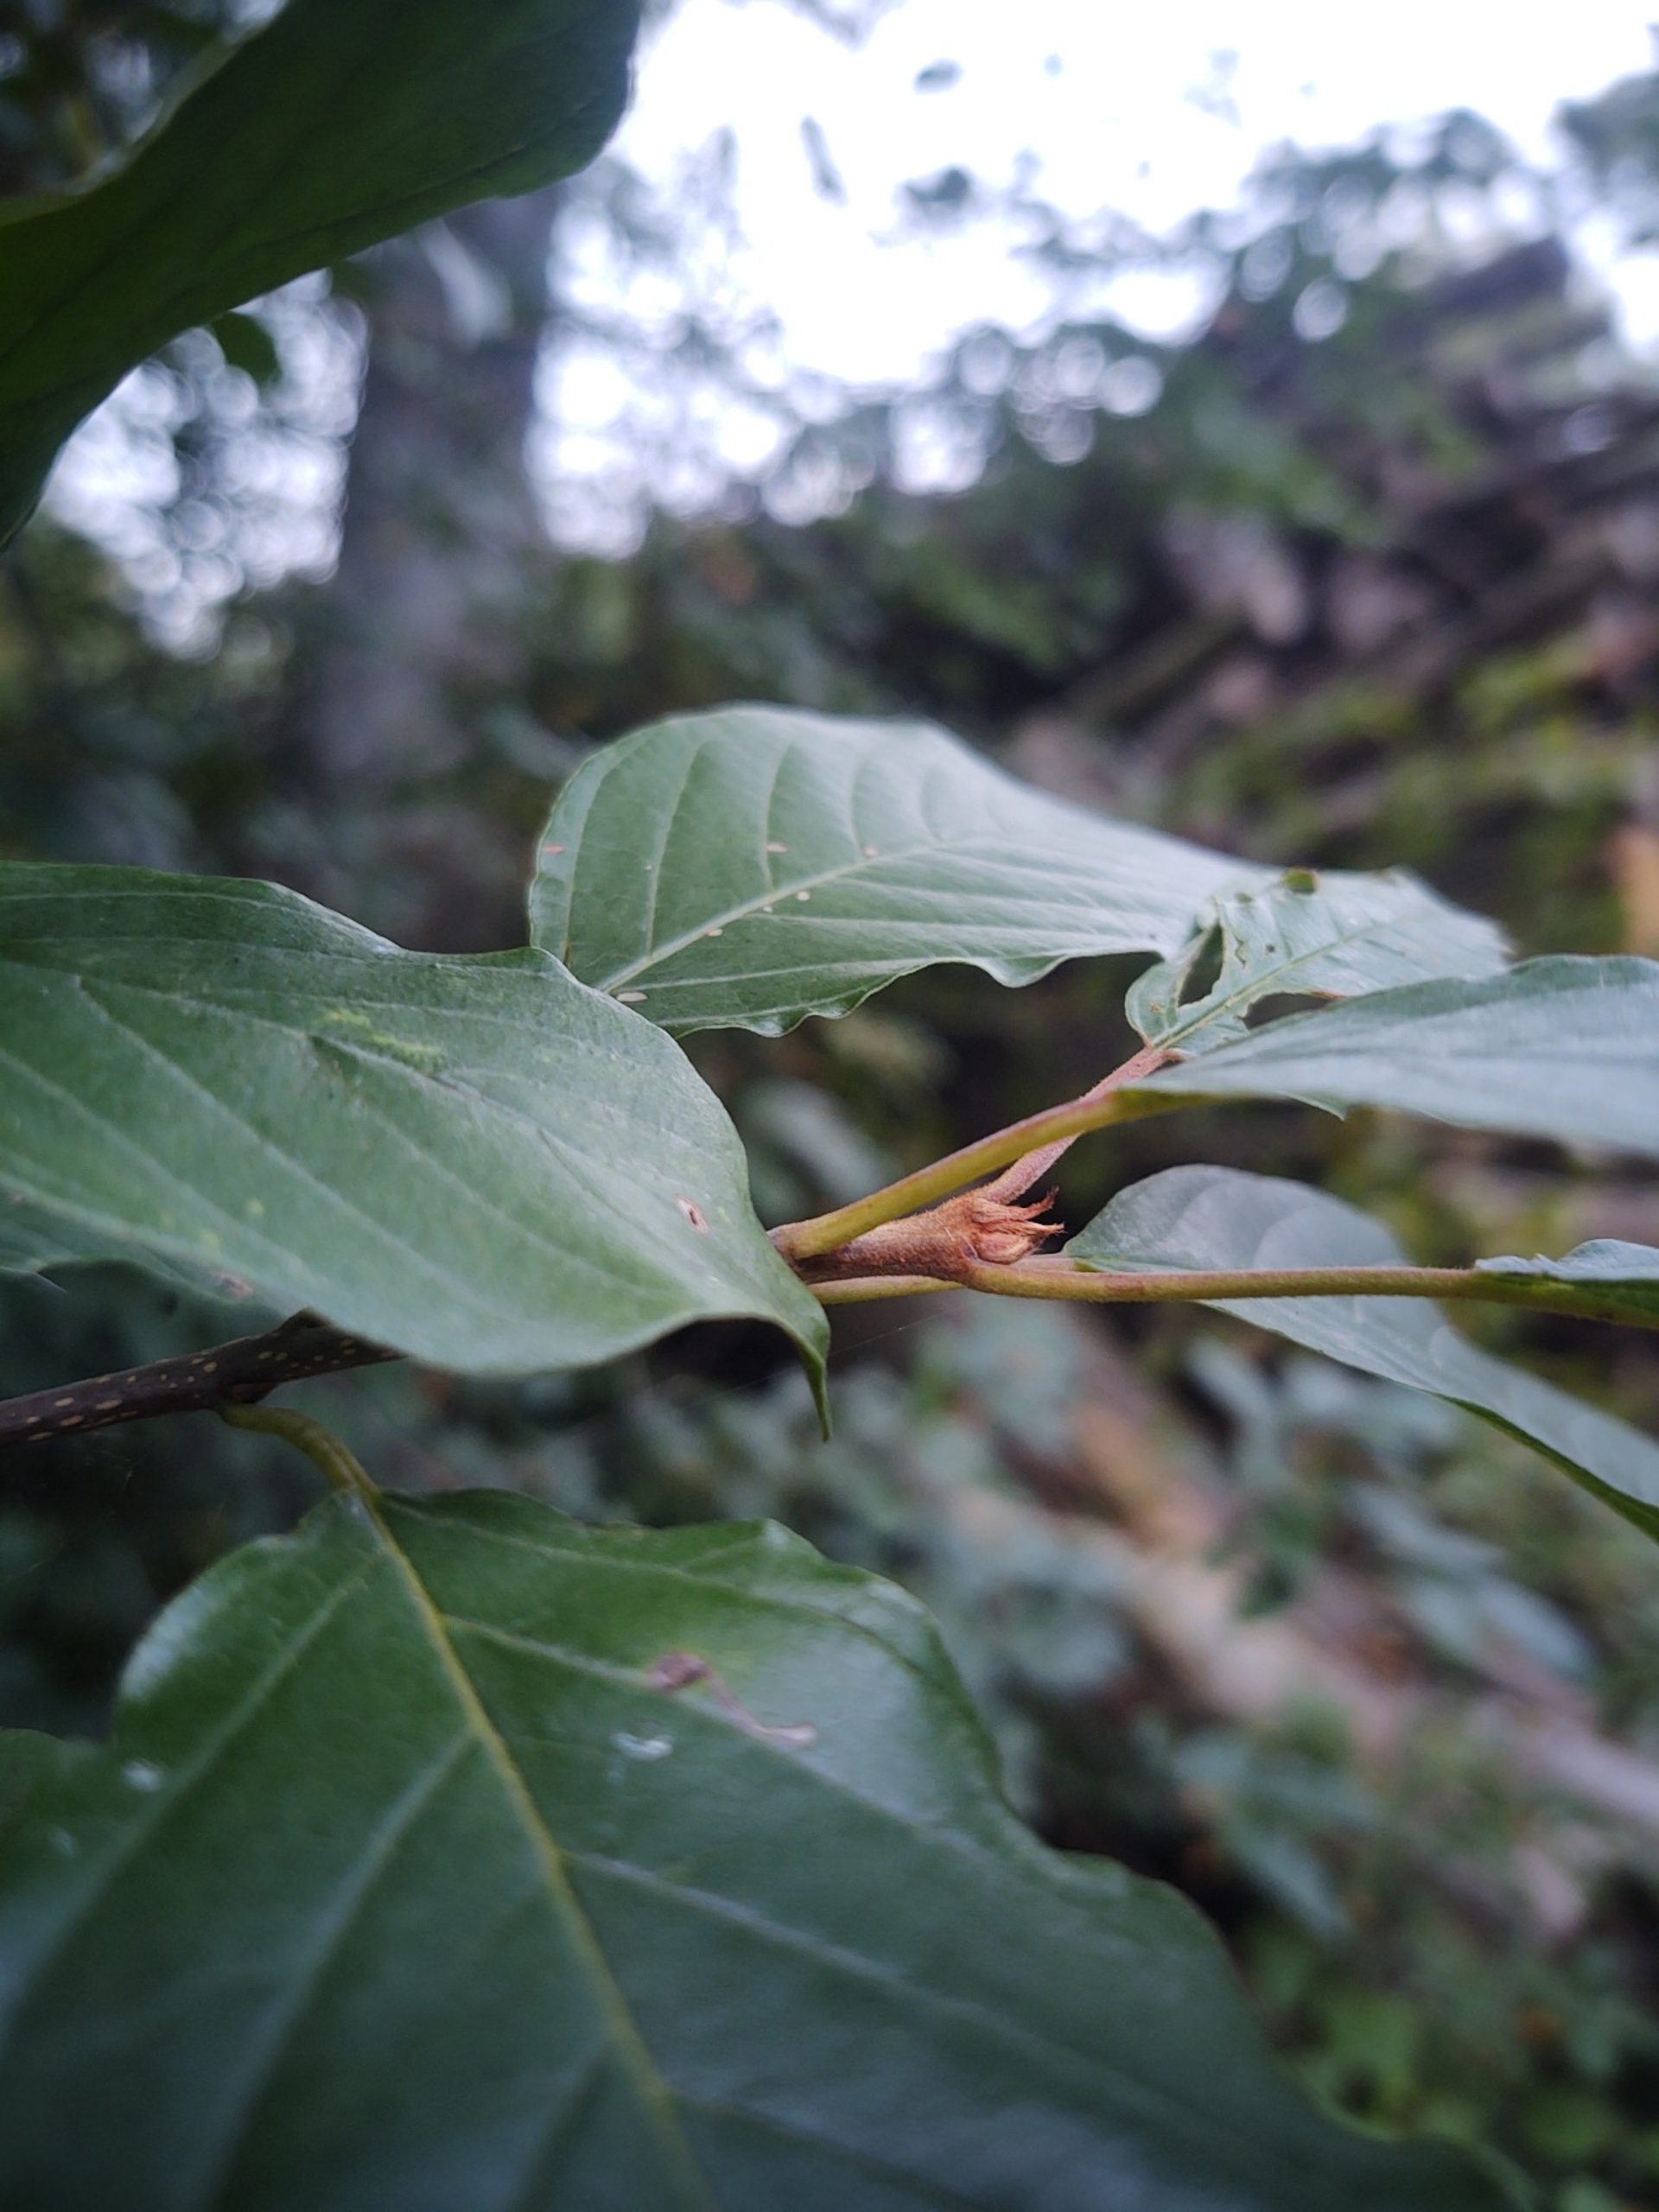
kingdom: Plantae
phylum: Tracheophyta
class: Magnoliopsida
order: Rosales
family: Rhamnaceae
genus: Frangula
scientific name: Frangula alnus
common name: Tørst
